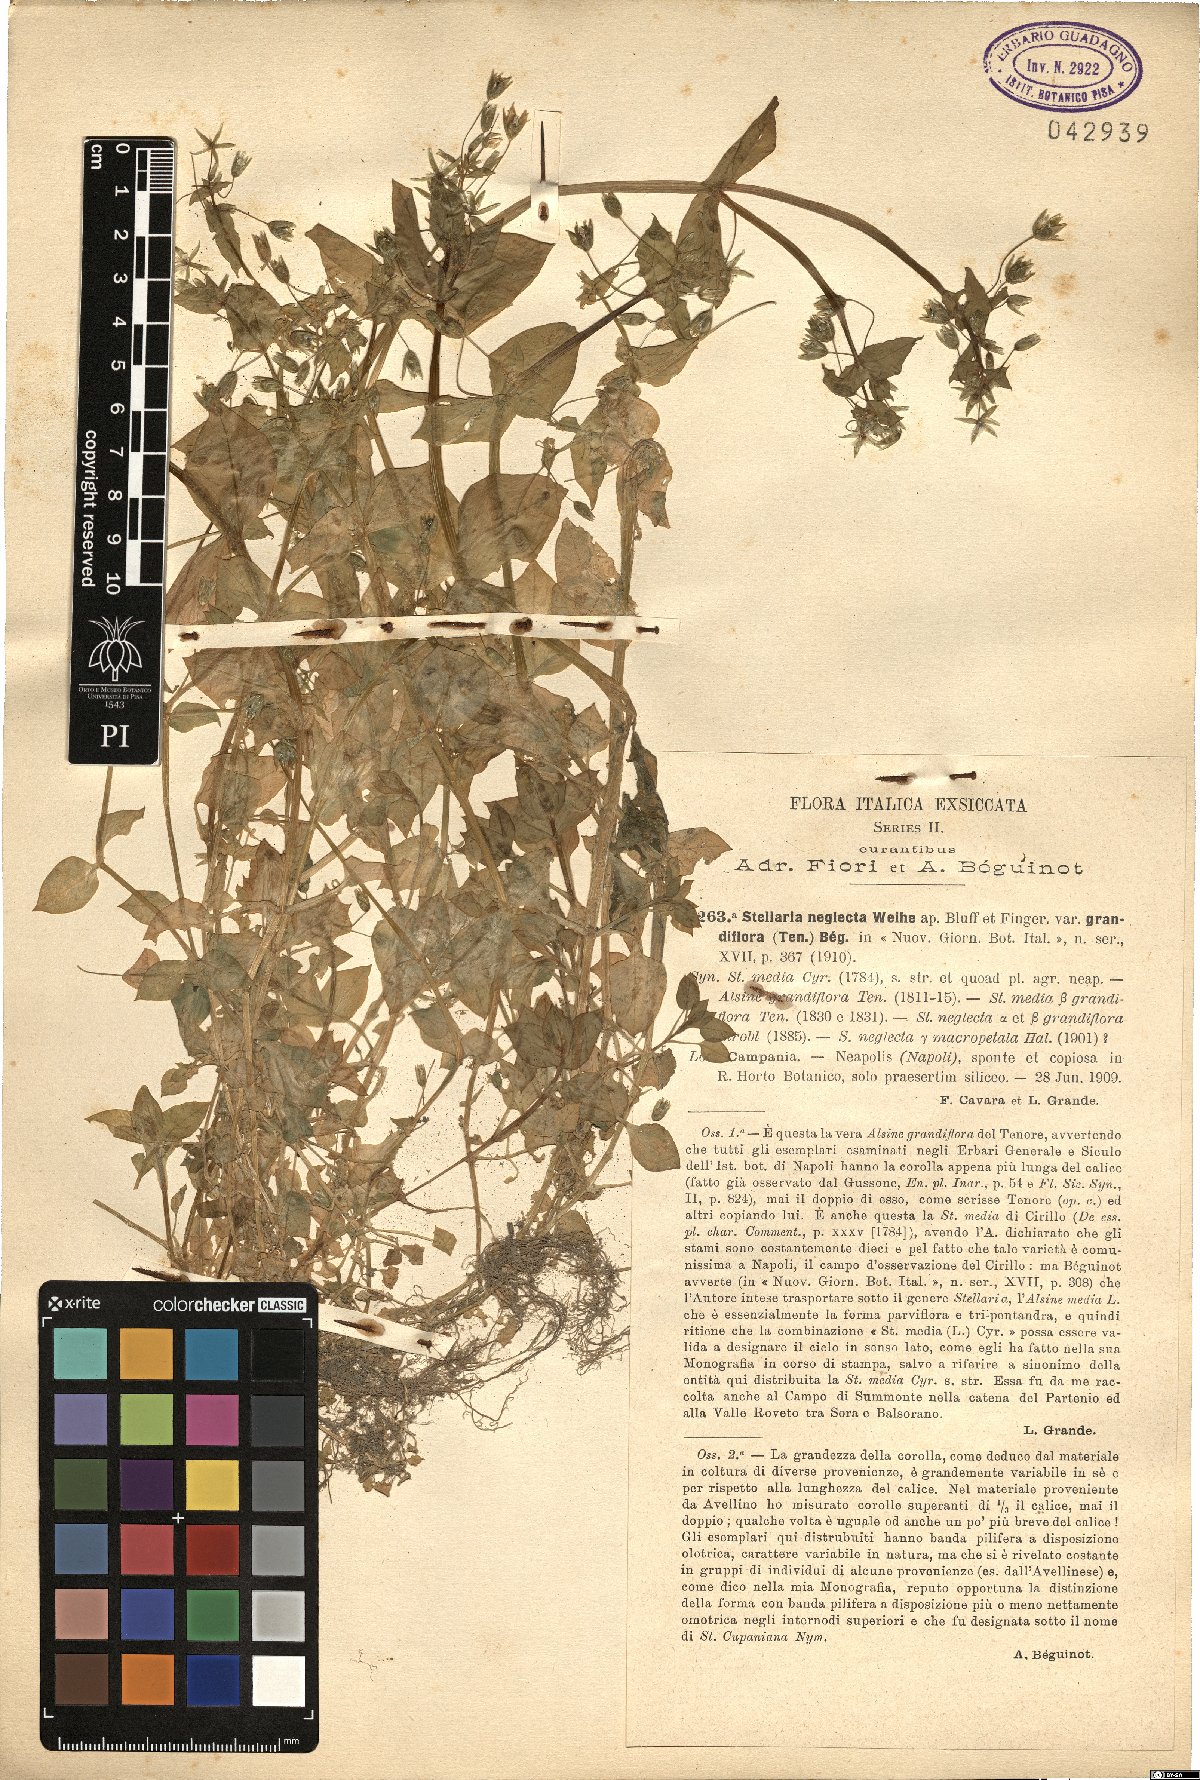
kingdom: Plantae
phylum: Tracheophyta
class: Magnoliopsida
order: Caryophyllales
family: Caryophyllaceae
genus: Stellaria
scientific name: Stellaria neglecta
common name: Greater chickweed
